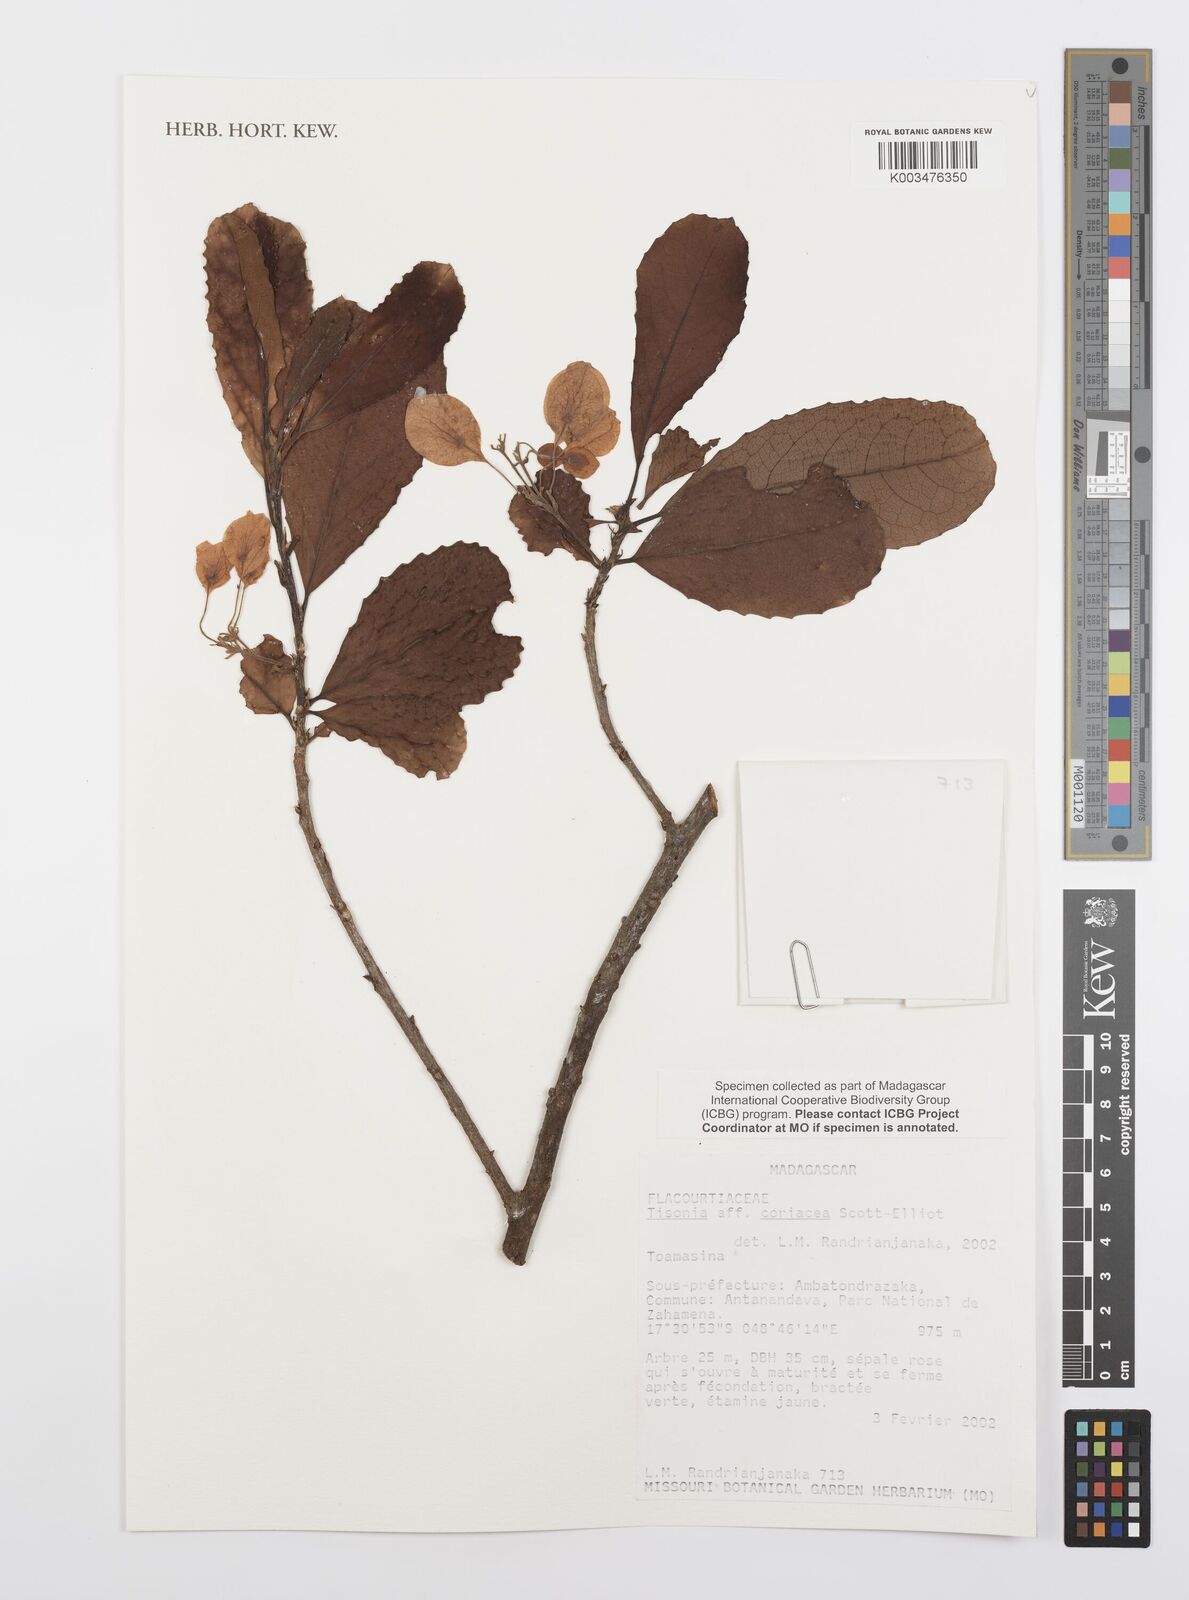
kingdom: Plantae
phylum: Tracheophyta
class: Magnoliopsida
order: Malpighiales
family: Salicaceae
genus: Tisonia
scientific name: Tisonia coriacea
